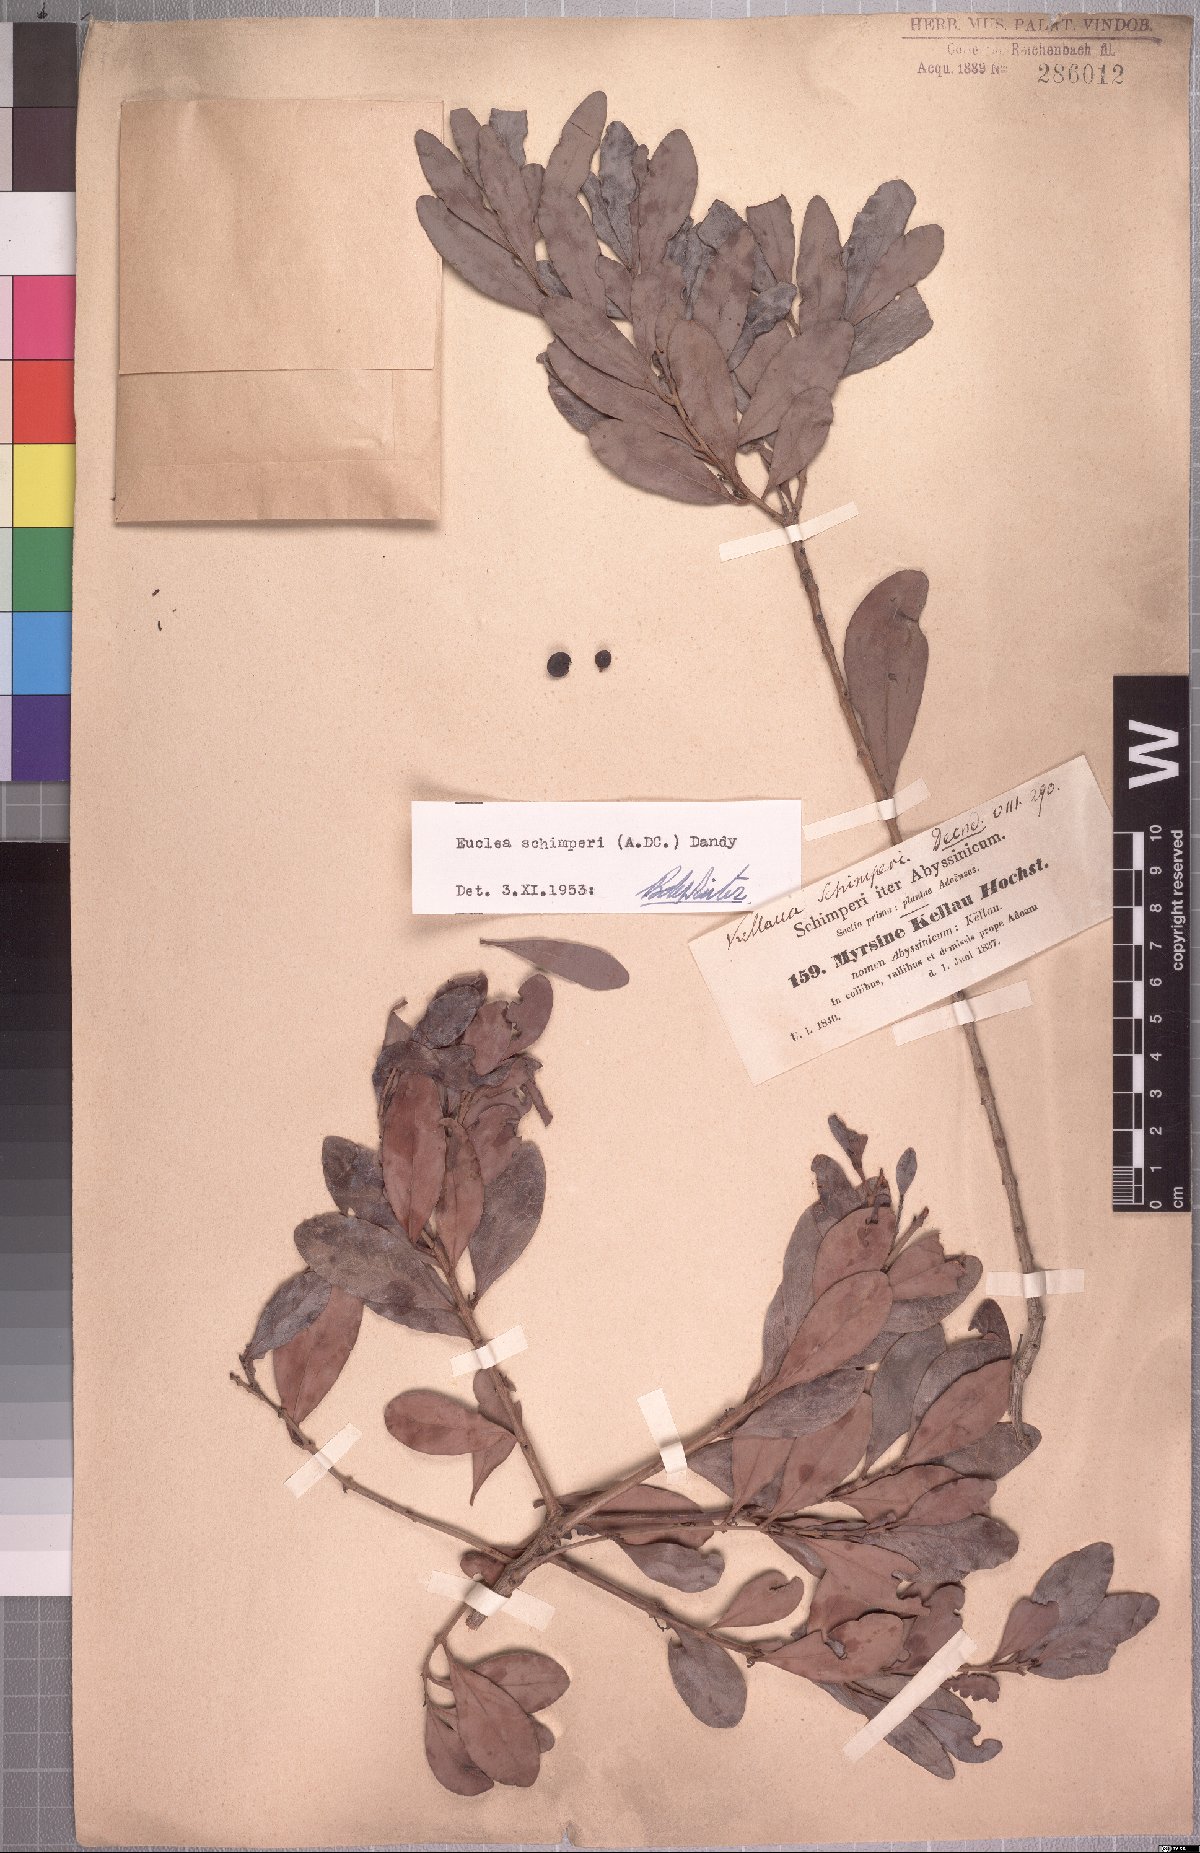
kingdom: Plantae
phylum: Tracheophyta
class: Magnoliopsida
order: Ericales
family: Ebenaceae
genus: Euclea
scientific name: Euclea racemosa
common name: Dune guarri
